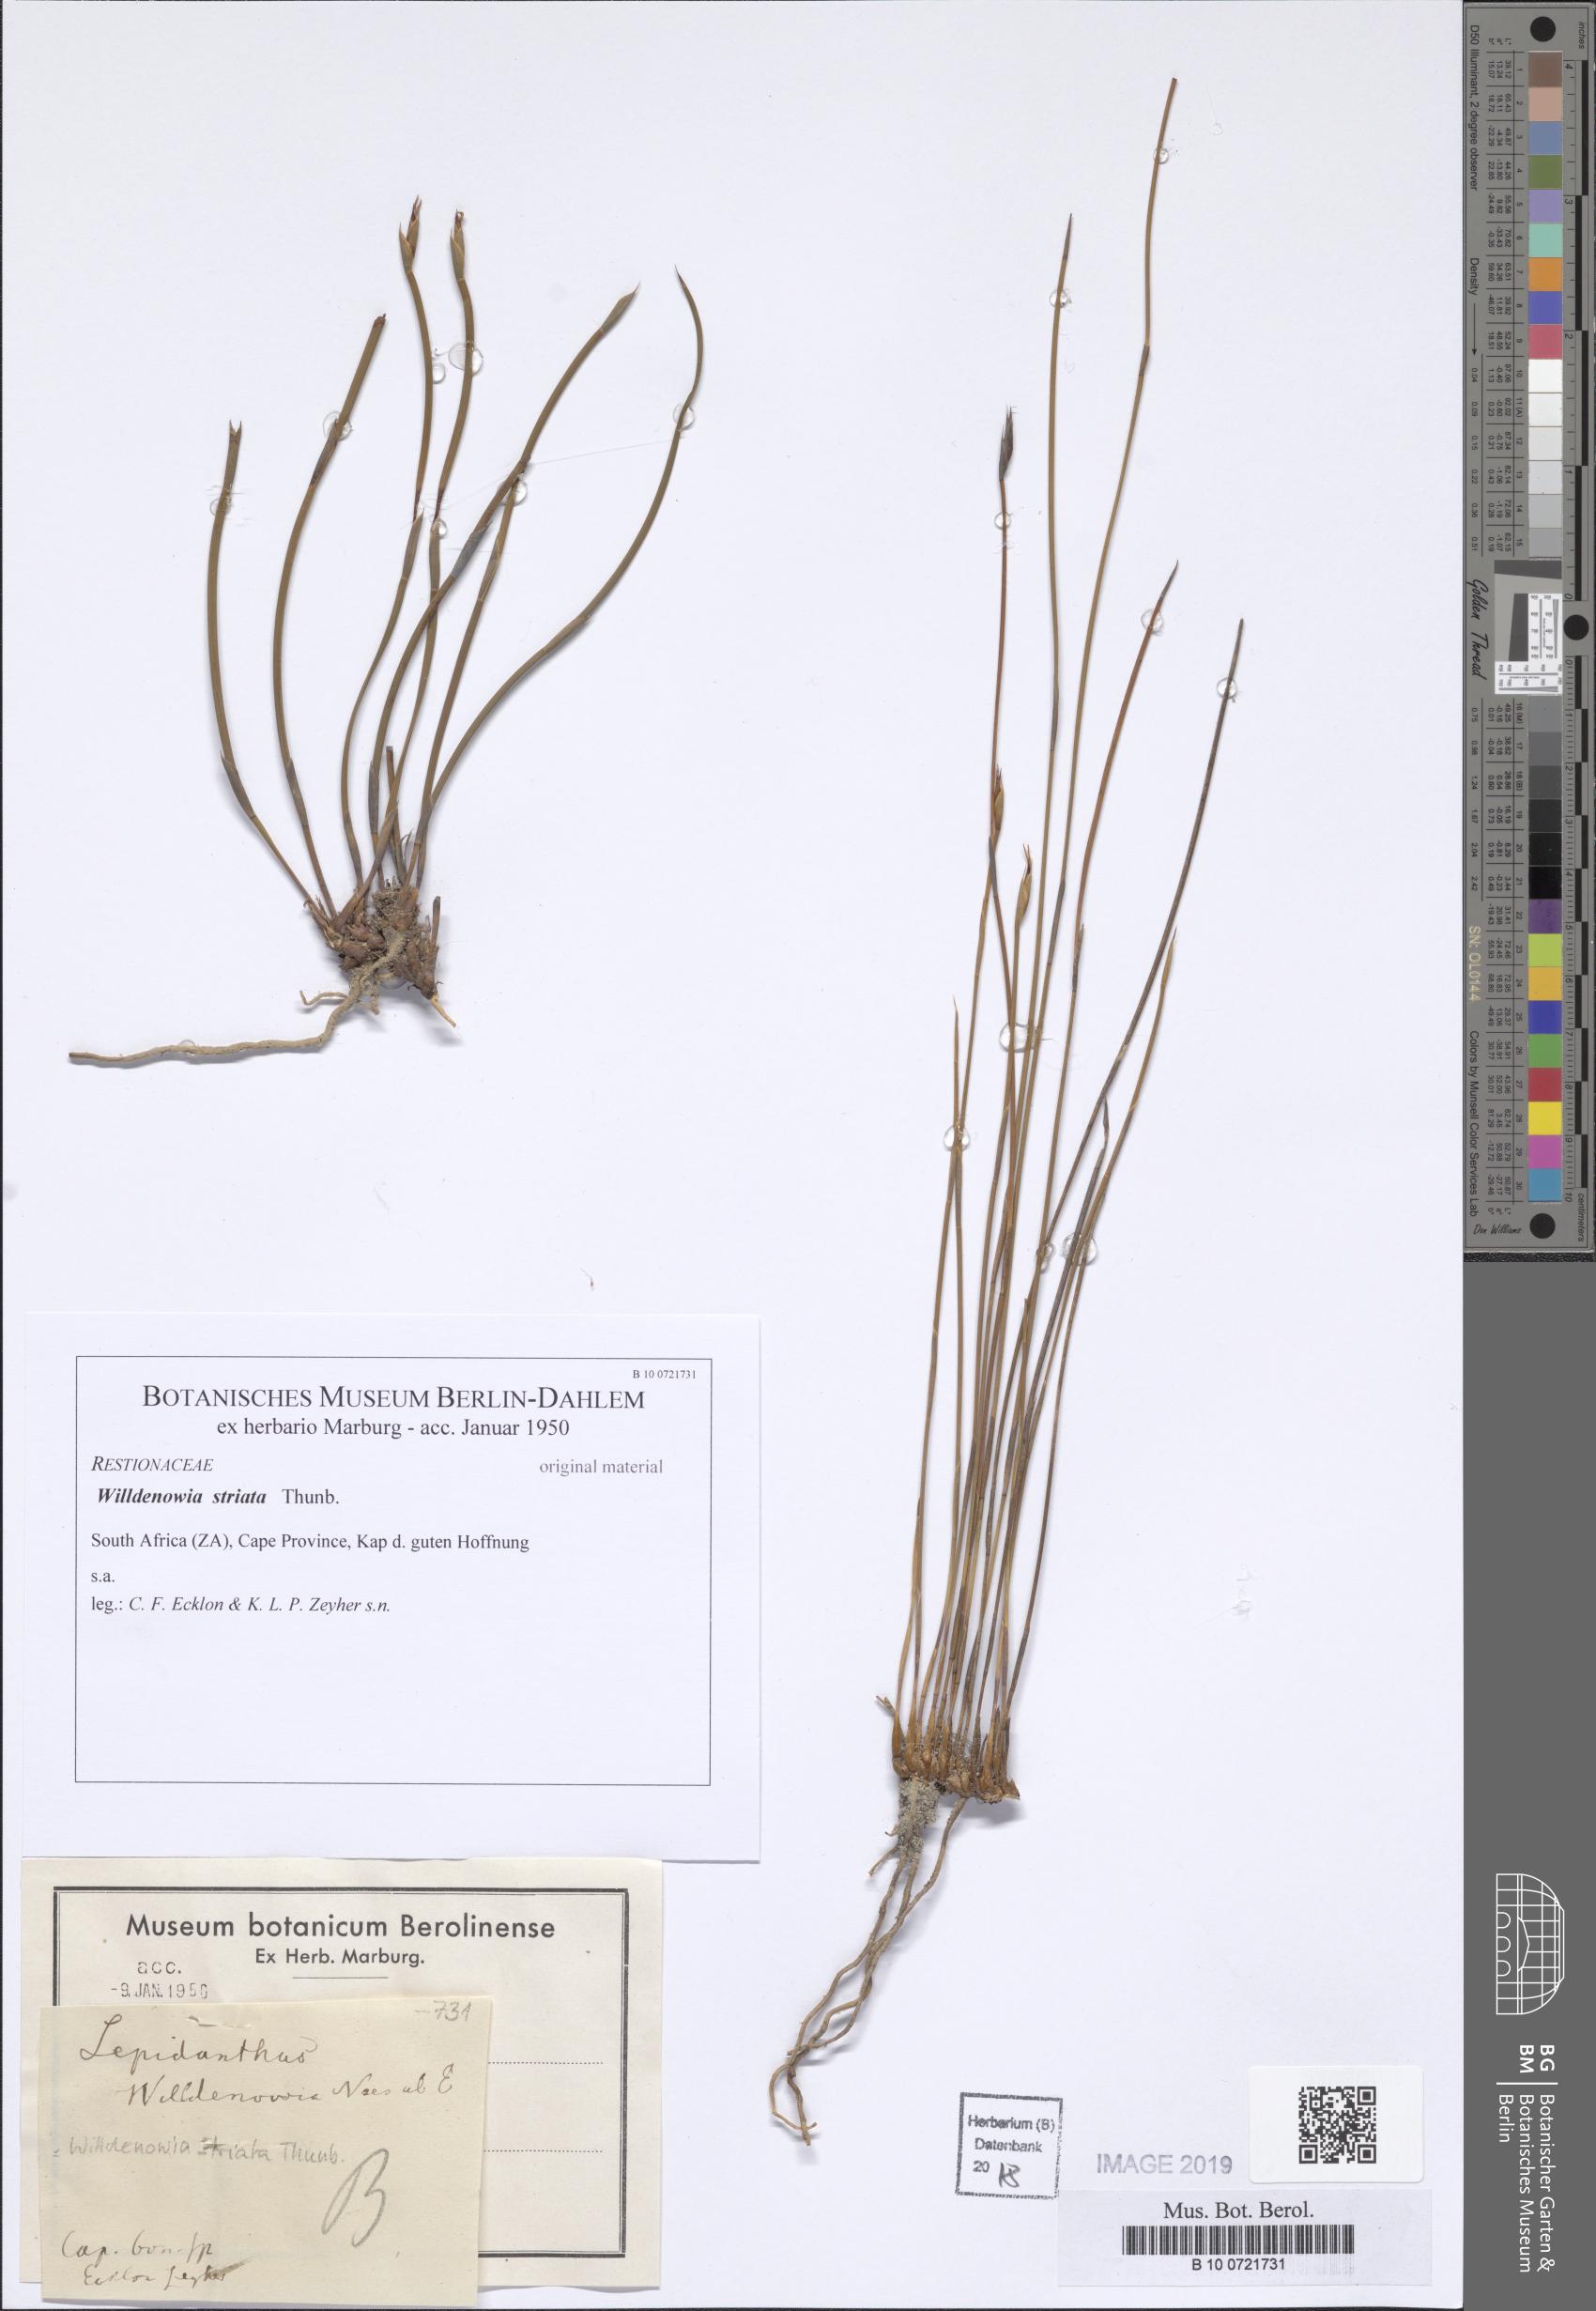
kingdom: Plantae
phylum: Tracheophyta
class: Liliopsida
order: Poales
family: Restionaceae
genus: Willdenowia
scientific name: Willdenowia incurvata
